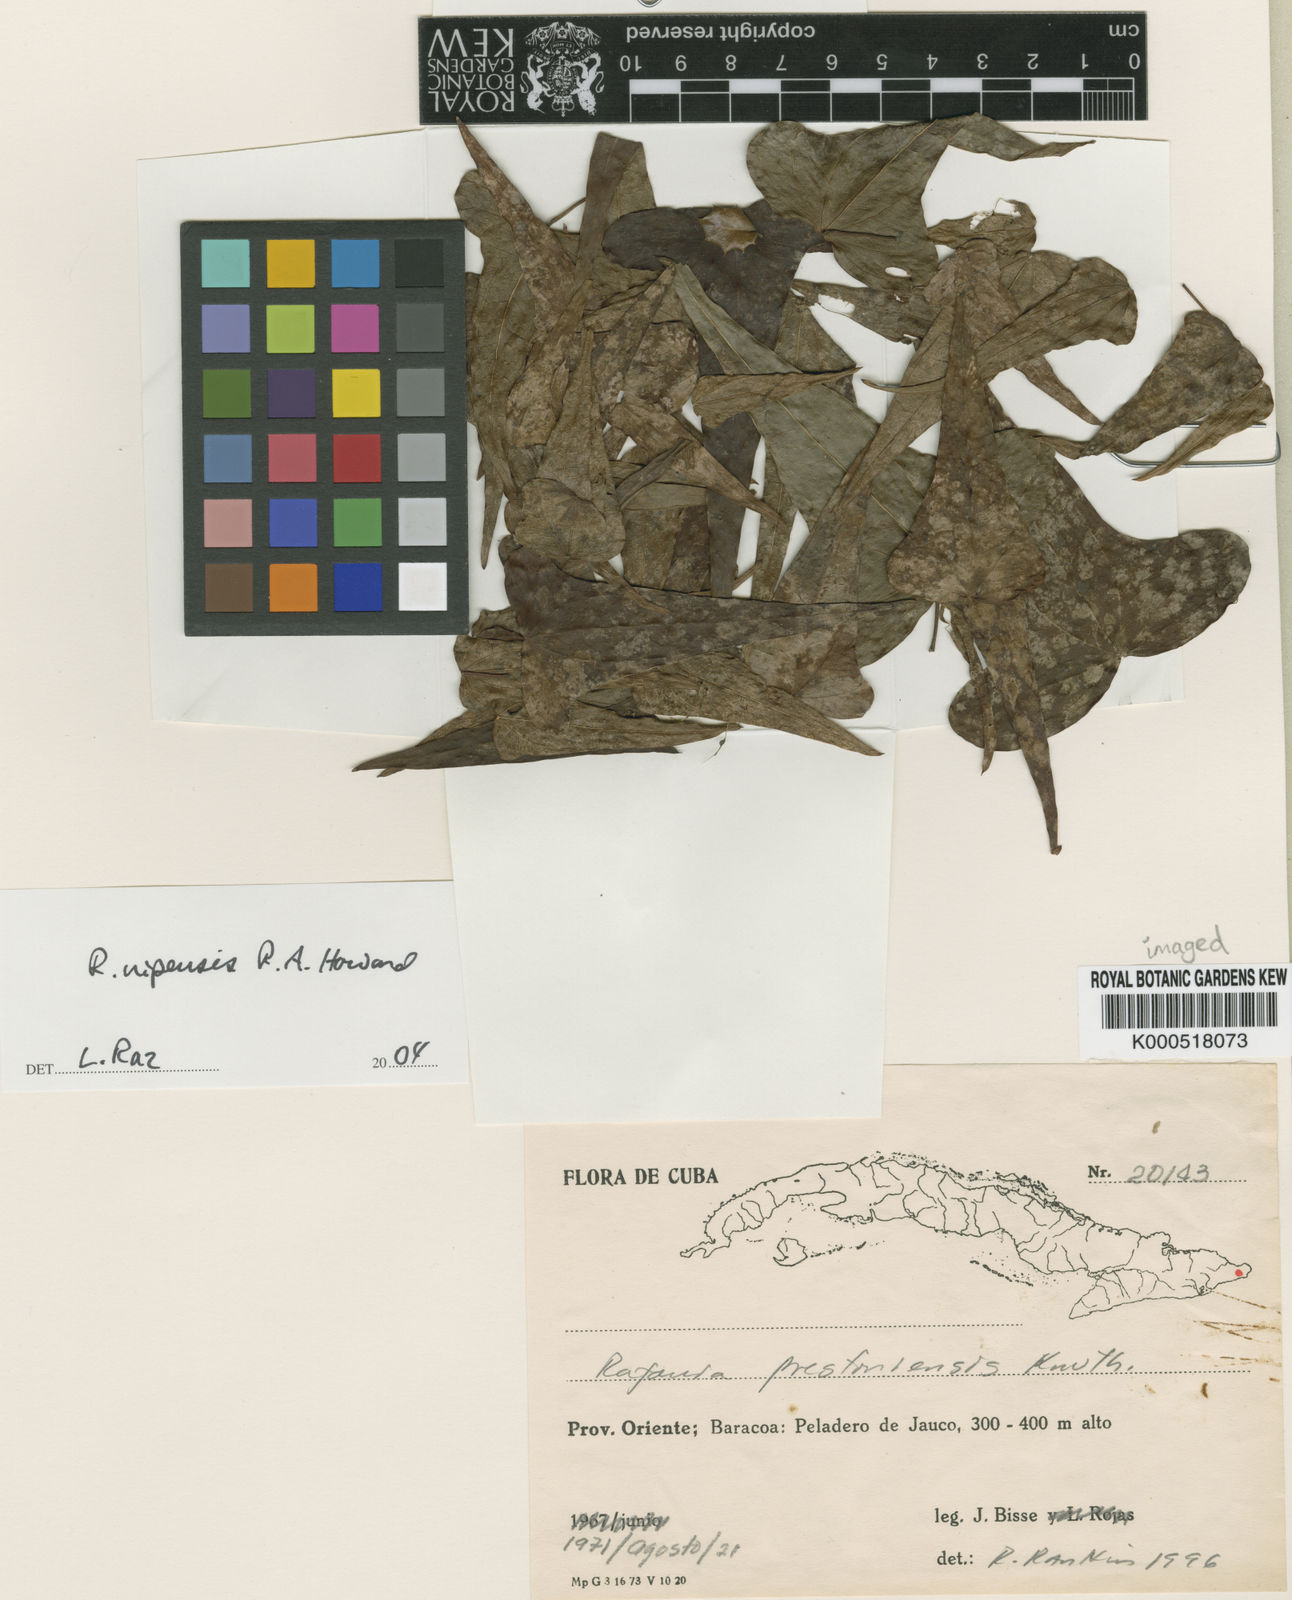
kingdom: Plantae
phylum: Tracheophyta
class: Liliopsida
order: Dioscoreales
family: Dioscoreaceae
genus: Dioscorea
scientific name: Dioscorea
